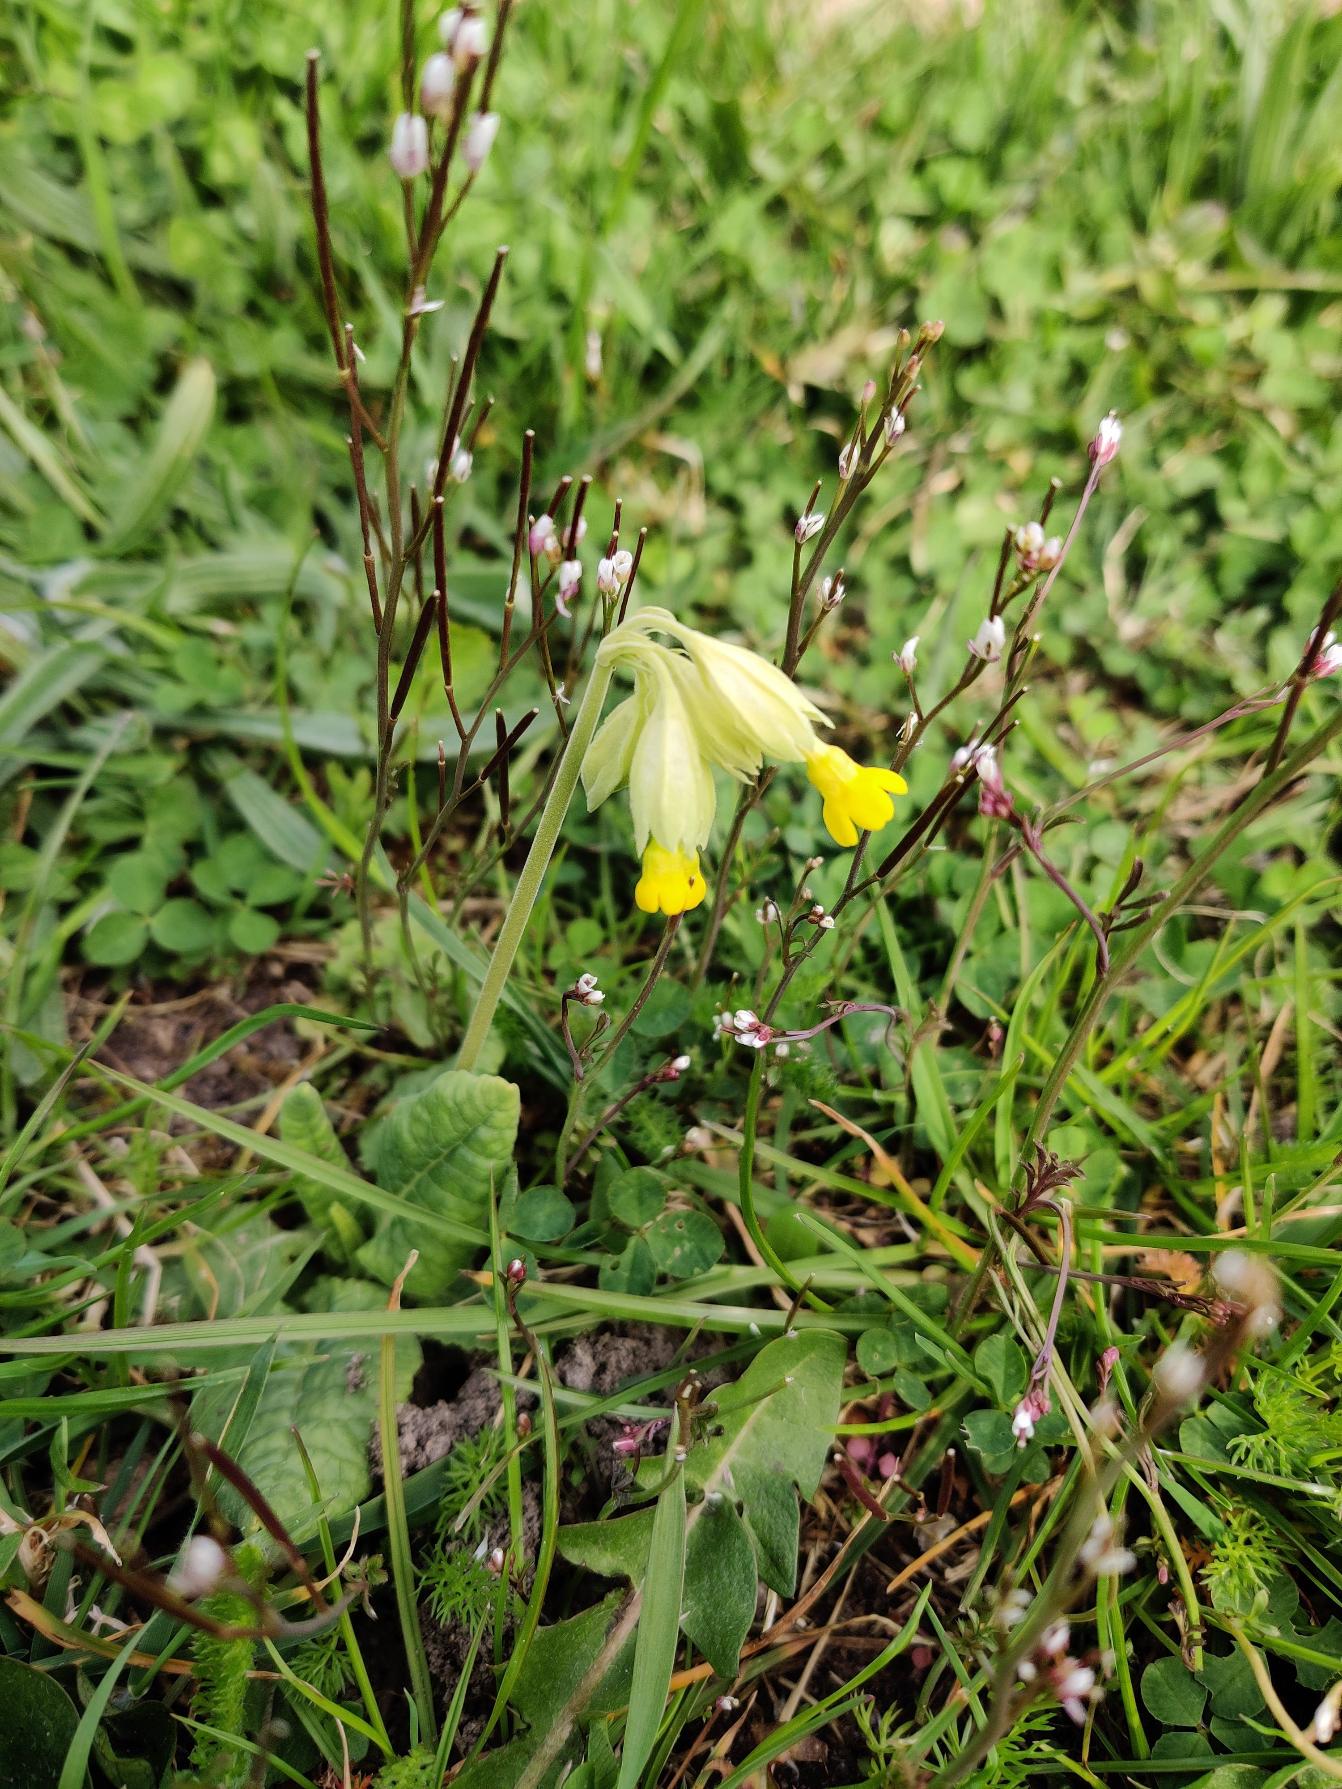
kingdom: Plantae
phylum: Tracheophyta
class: Magnoliopsida
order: Ericales
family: Primulaceae
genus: Primula
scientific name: Primula veris
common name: Hulkravet kodriver
